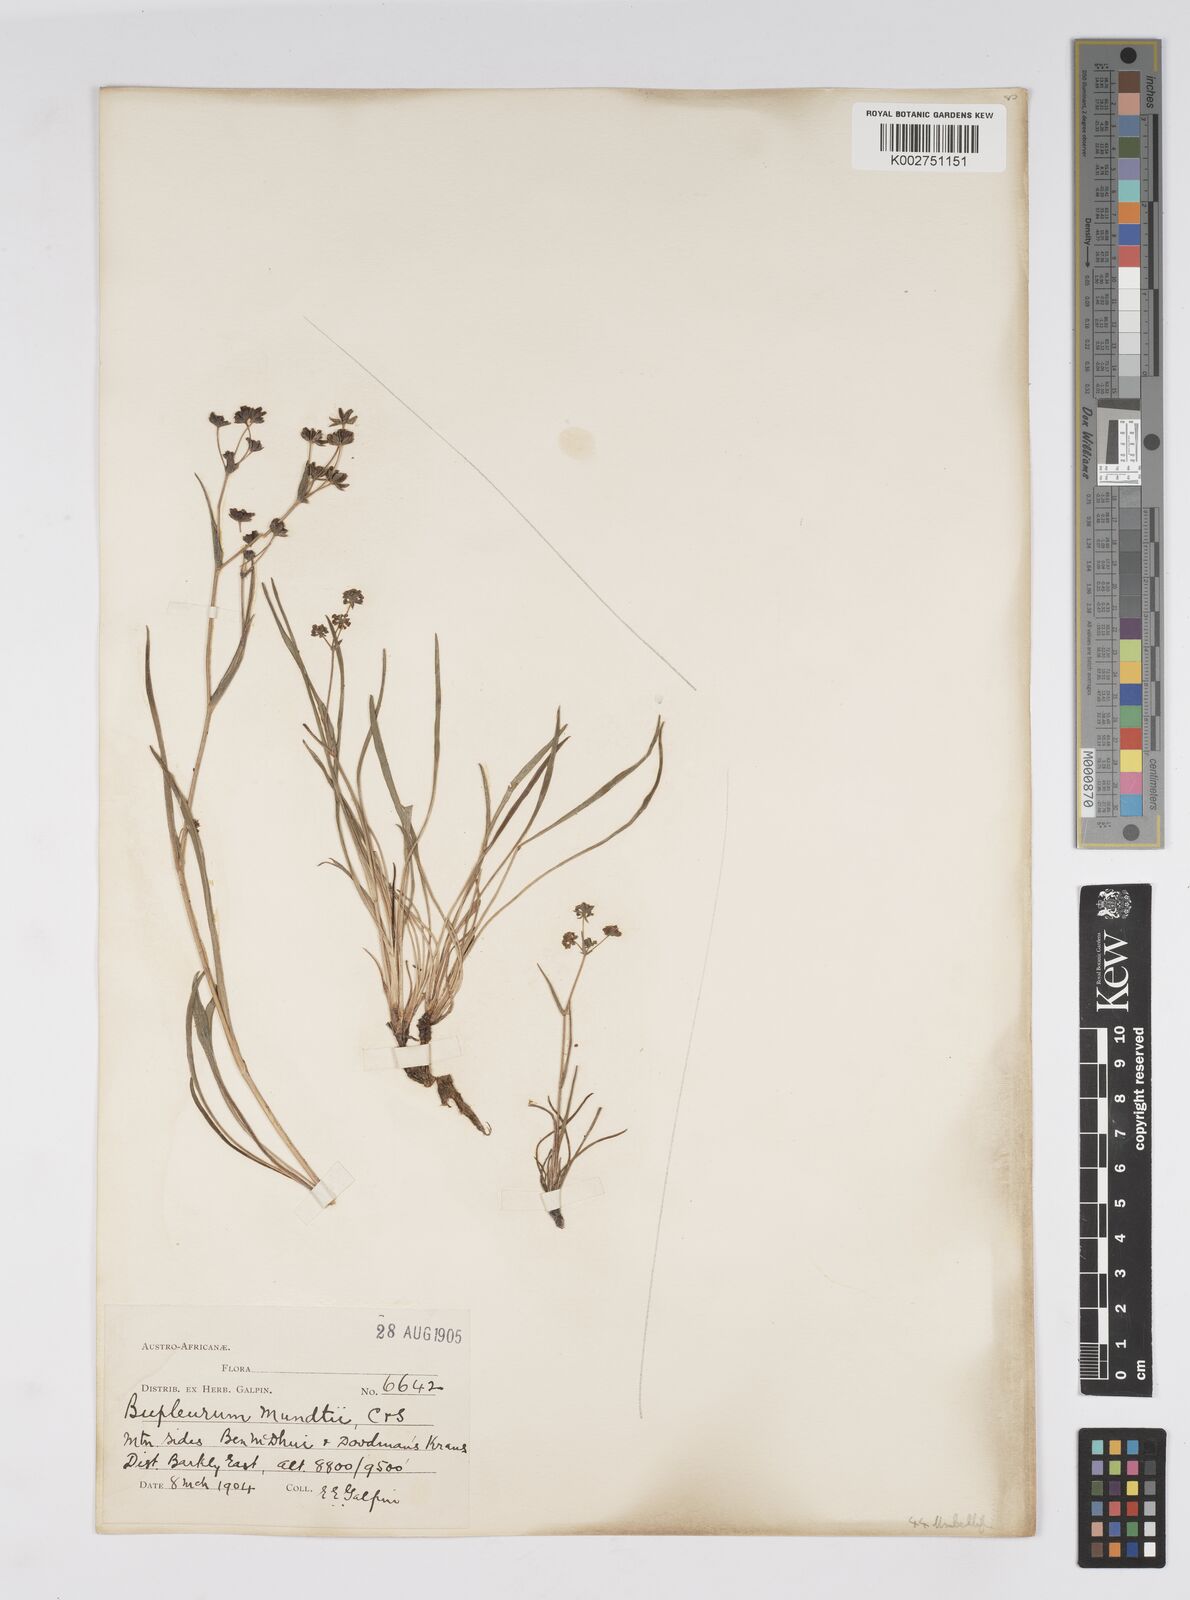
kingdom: Plantae
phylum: Tracheophyta
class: Magnoliopsida
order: Apiales
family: Apiaceae
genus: Bupleurum
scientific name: Bupleurum mundii
